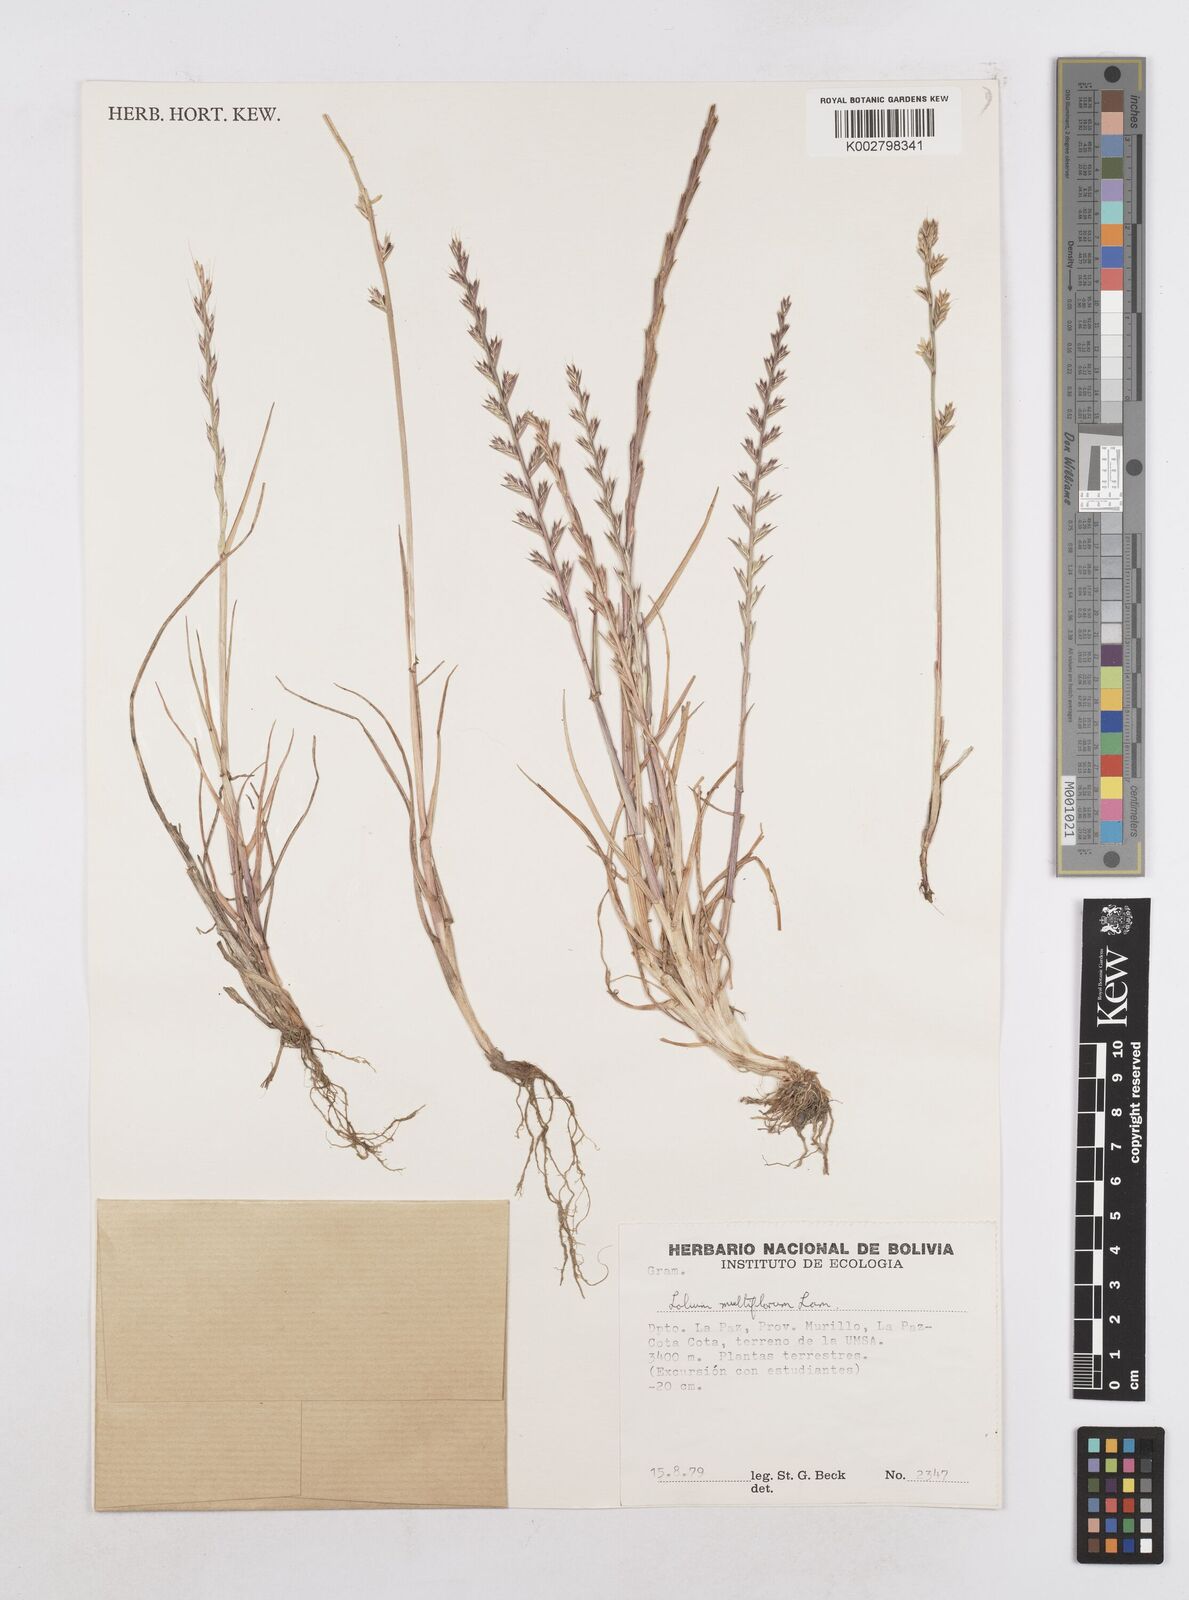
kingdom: Plantae
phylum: Tracheophyta
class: Liliopsida
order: Poales
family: Poaceae
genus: Lolium
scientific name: Lolium multiflorum
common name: Annual ryegrass
